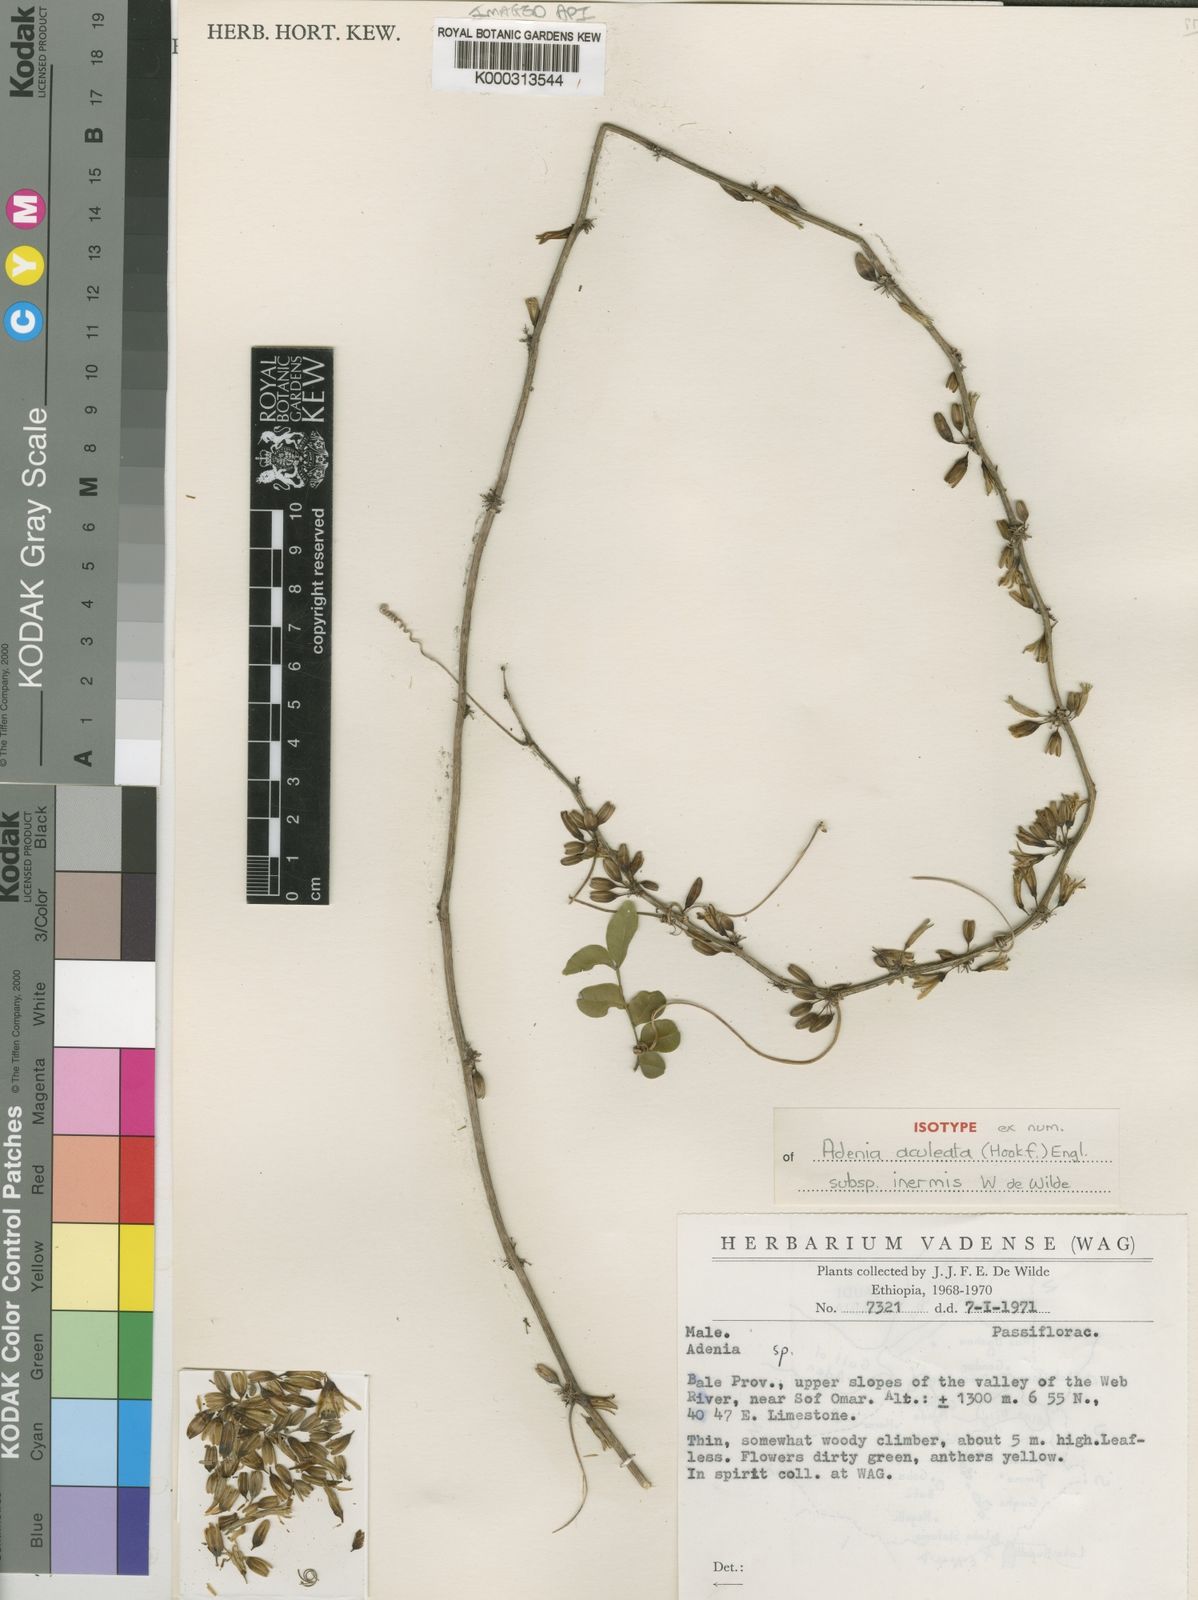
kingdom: Plantae
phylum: Tracheophyta
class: Magnoliopsida
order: Malpighiales
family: Passifloraceae
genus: Adenia
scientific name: Adenia inermis
